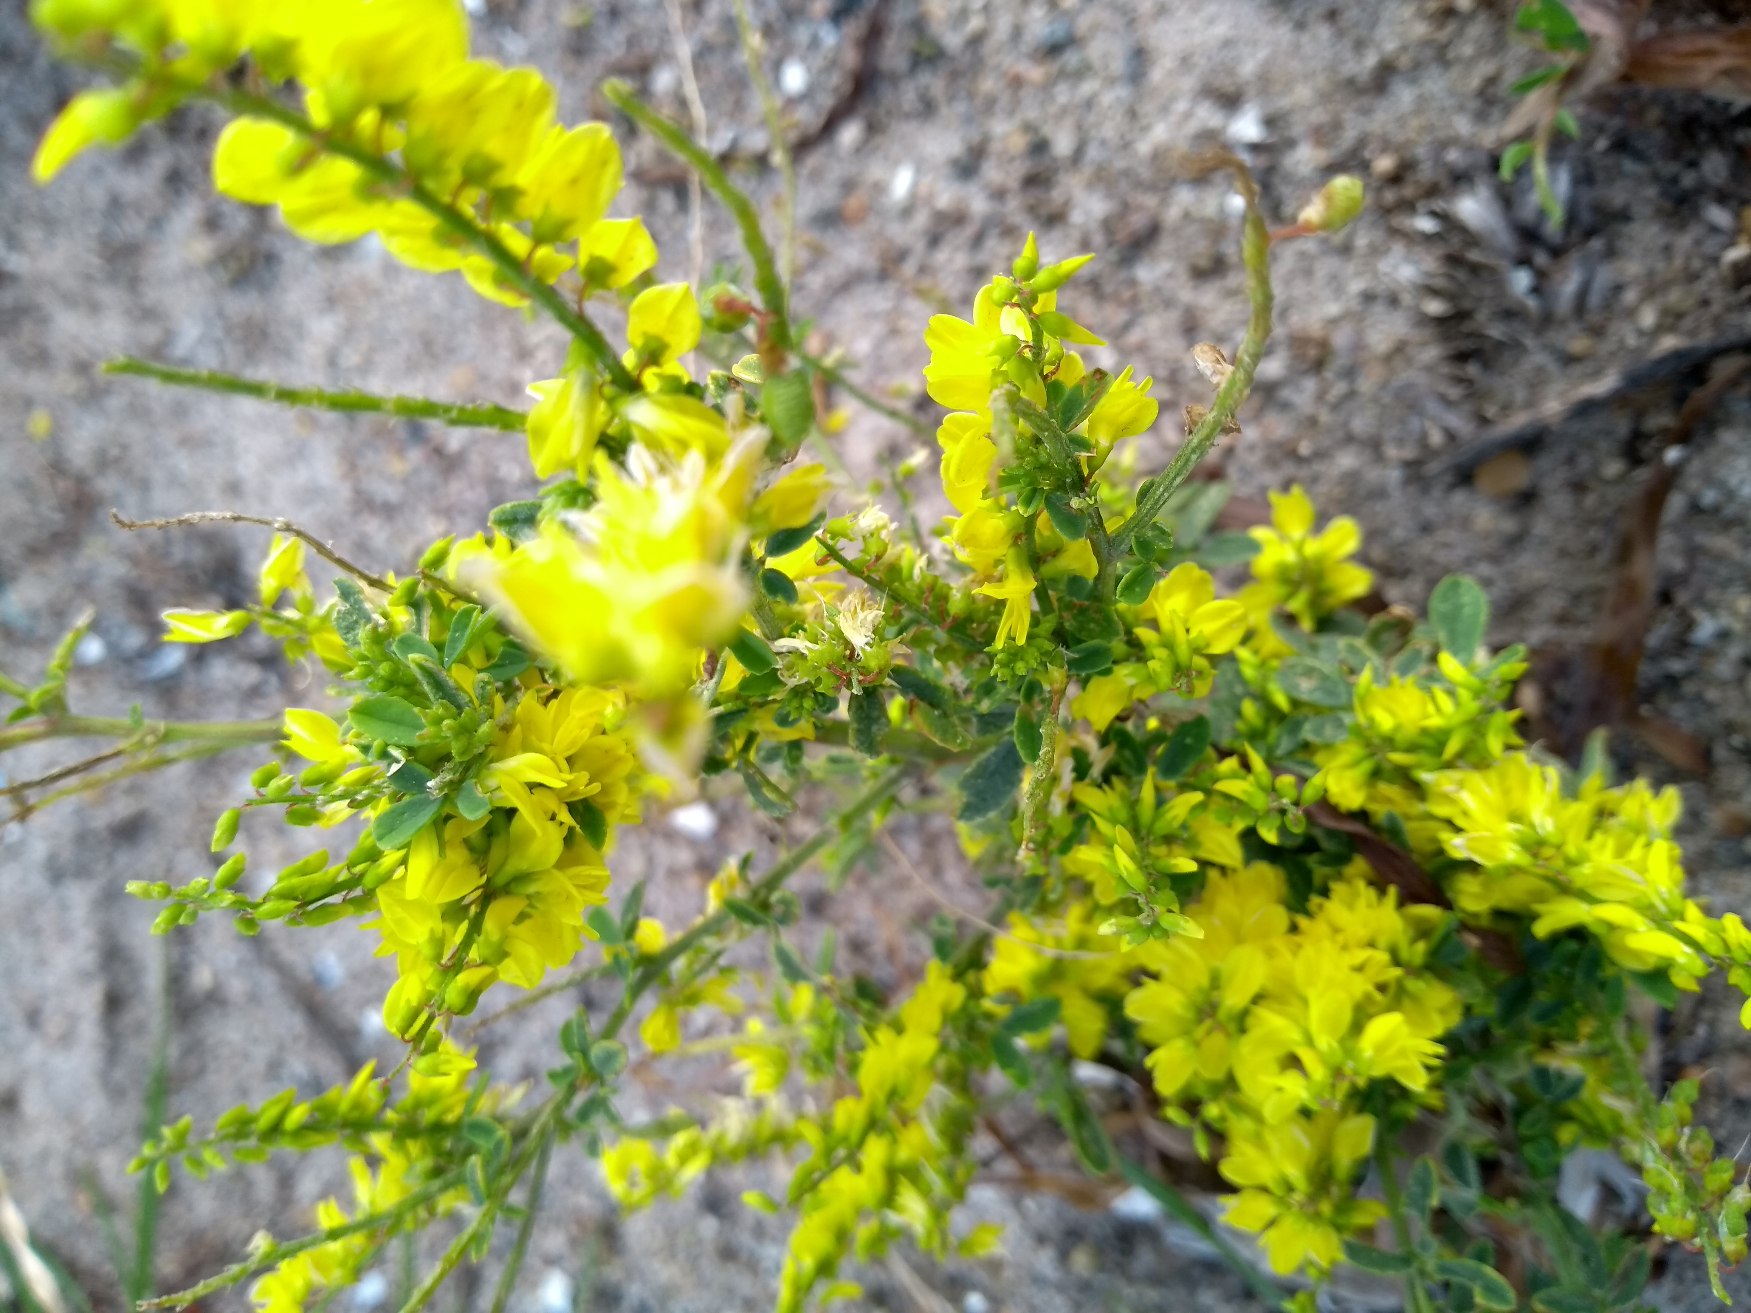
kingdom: Plantae
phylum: Tracheophyta
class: Magnoliopsida
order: Fabales
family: Fabaceae
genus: Melilotus
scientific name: Melilotus officinalis
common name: Mark-stenkløver
